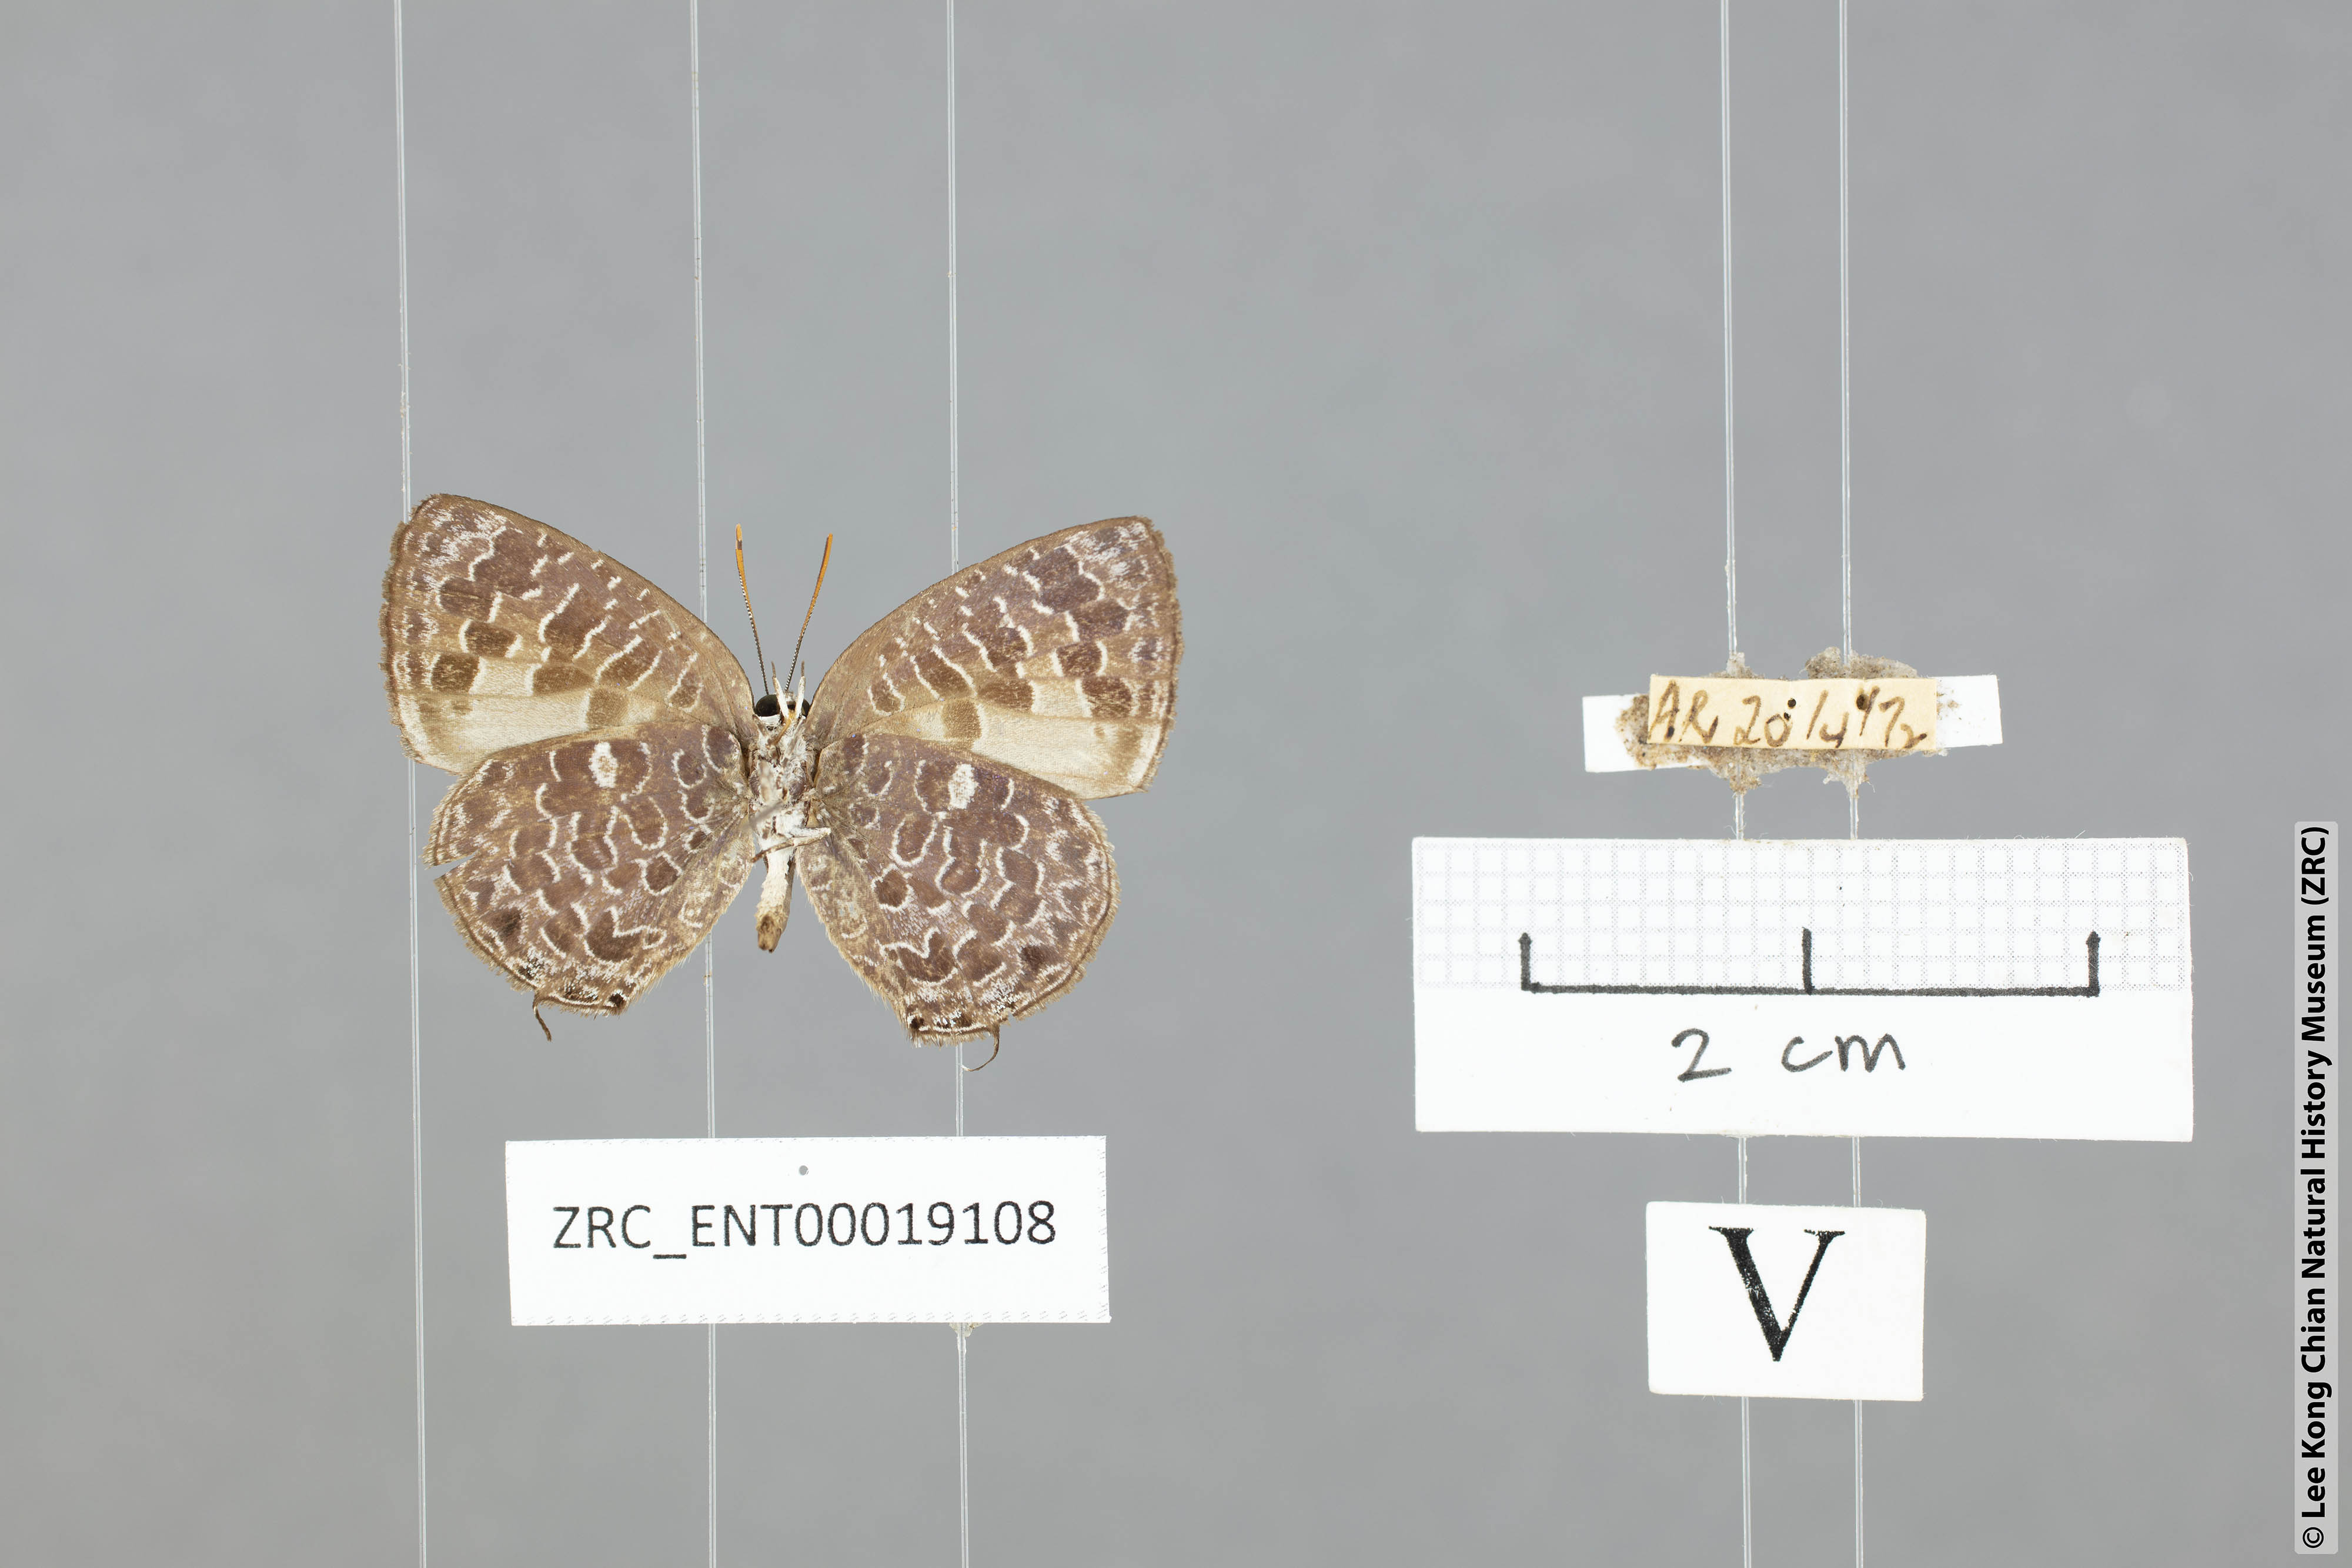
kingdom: Animalia
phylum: Arthropoda
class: Insecta
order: Lepidoptera
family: Lycaenidae
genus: Arhopala
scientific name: Arhopala ammon
